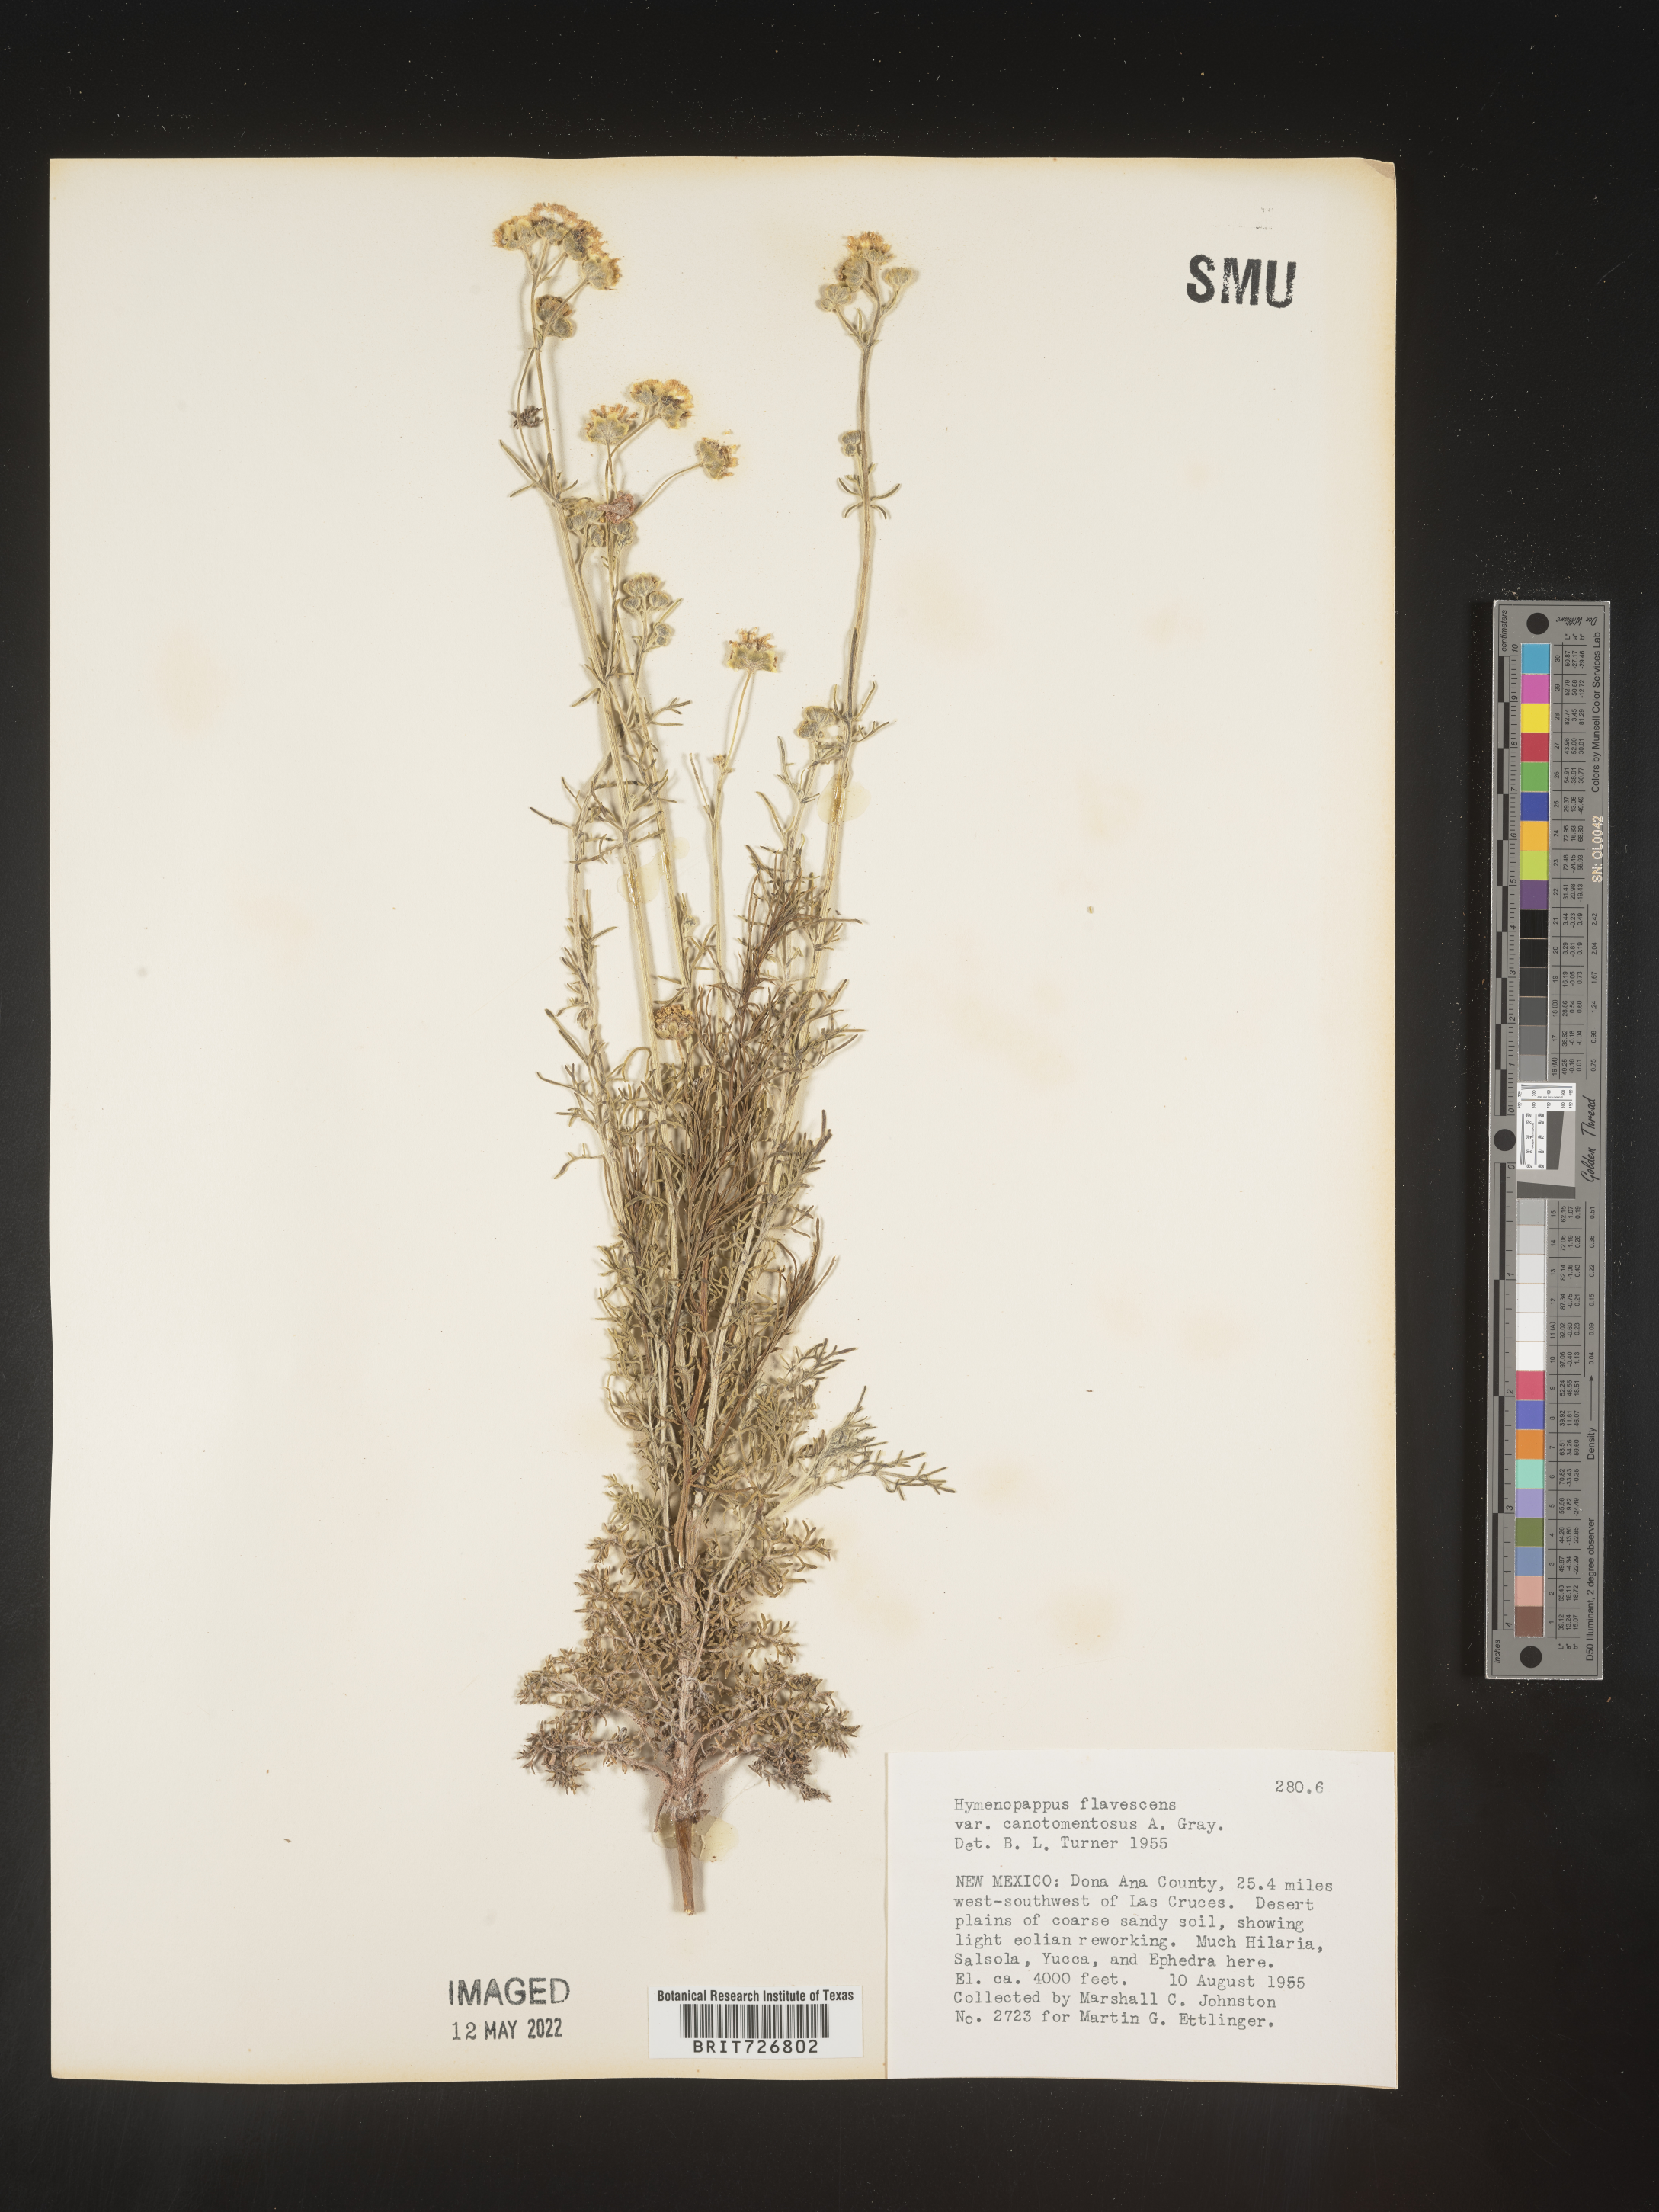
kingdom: Plantae
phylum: Tracheophyta
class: Magnoliopsida
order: Asterales
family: Asteraceae
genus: Hymenopappus
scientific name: Hymenopappus flavescens
